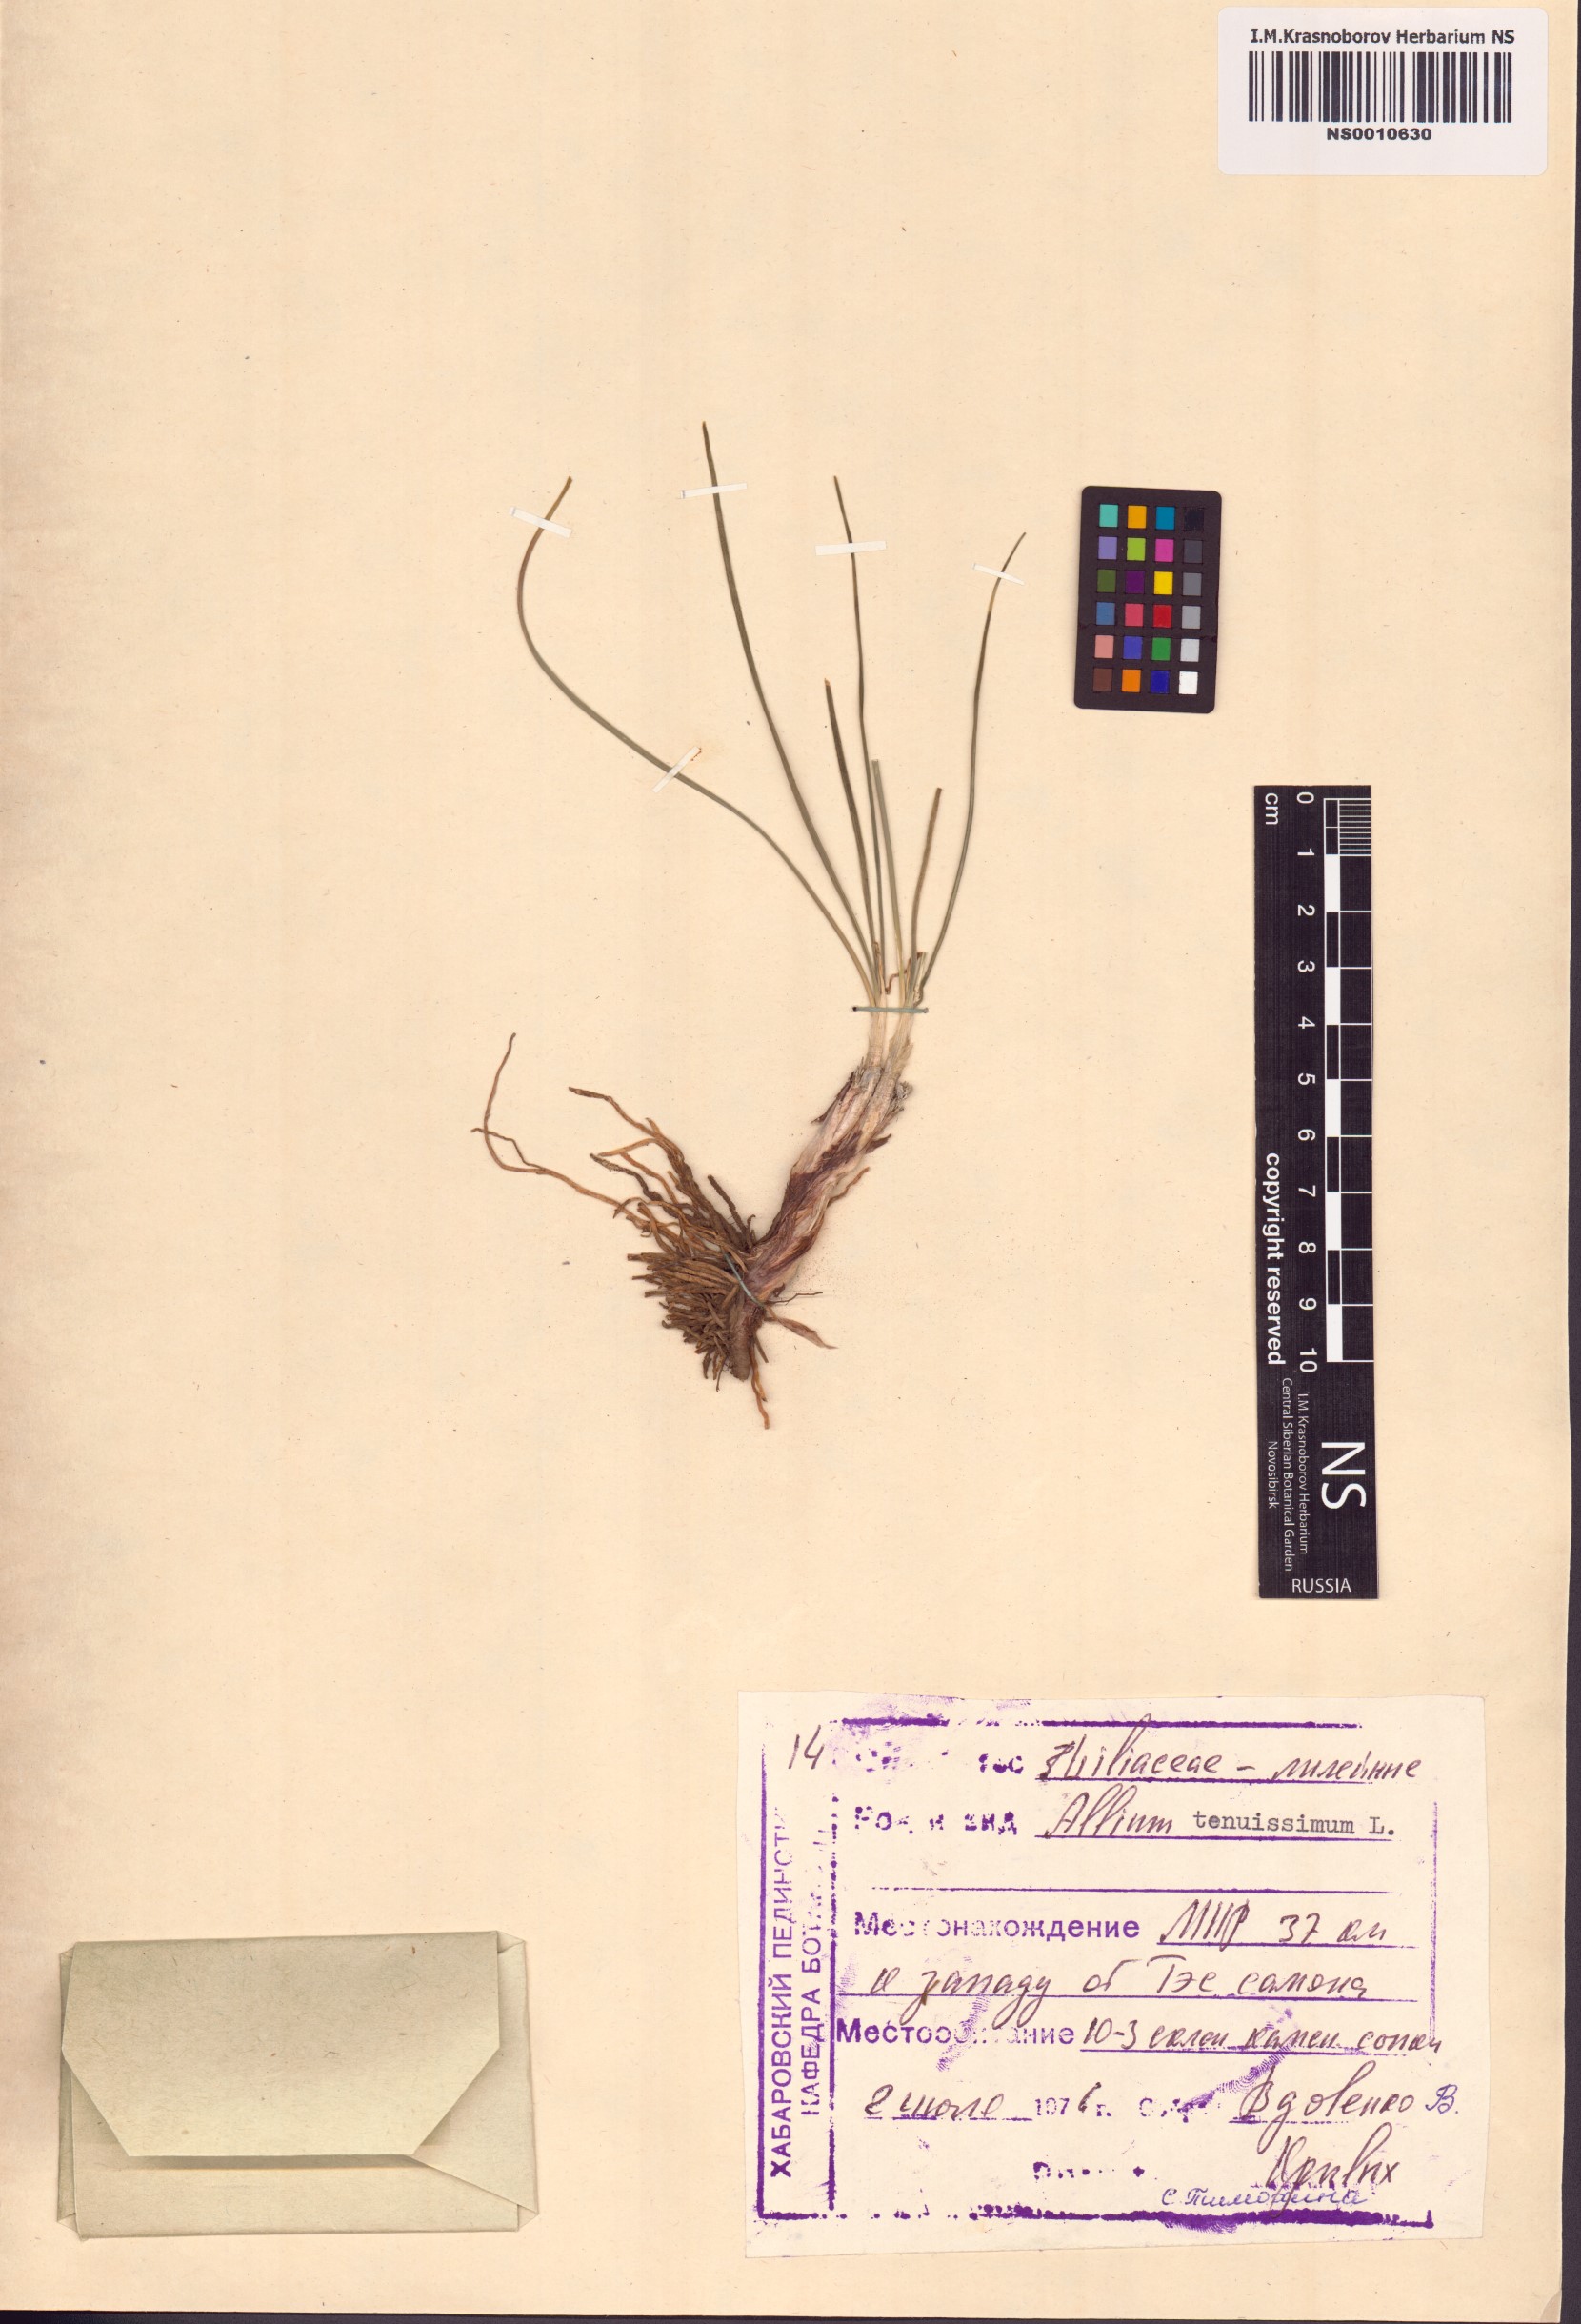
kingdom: Plantae
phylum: Tracheophyta
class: Liliopsida
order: Asparagales
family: Amaryllidaceae
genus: Allium
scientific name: Allium tenuissimum
